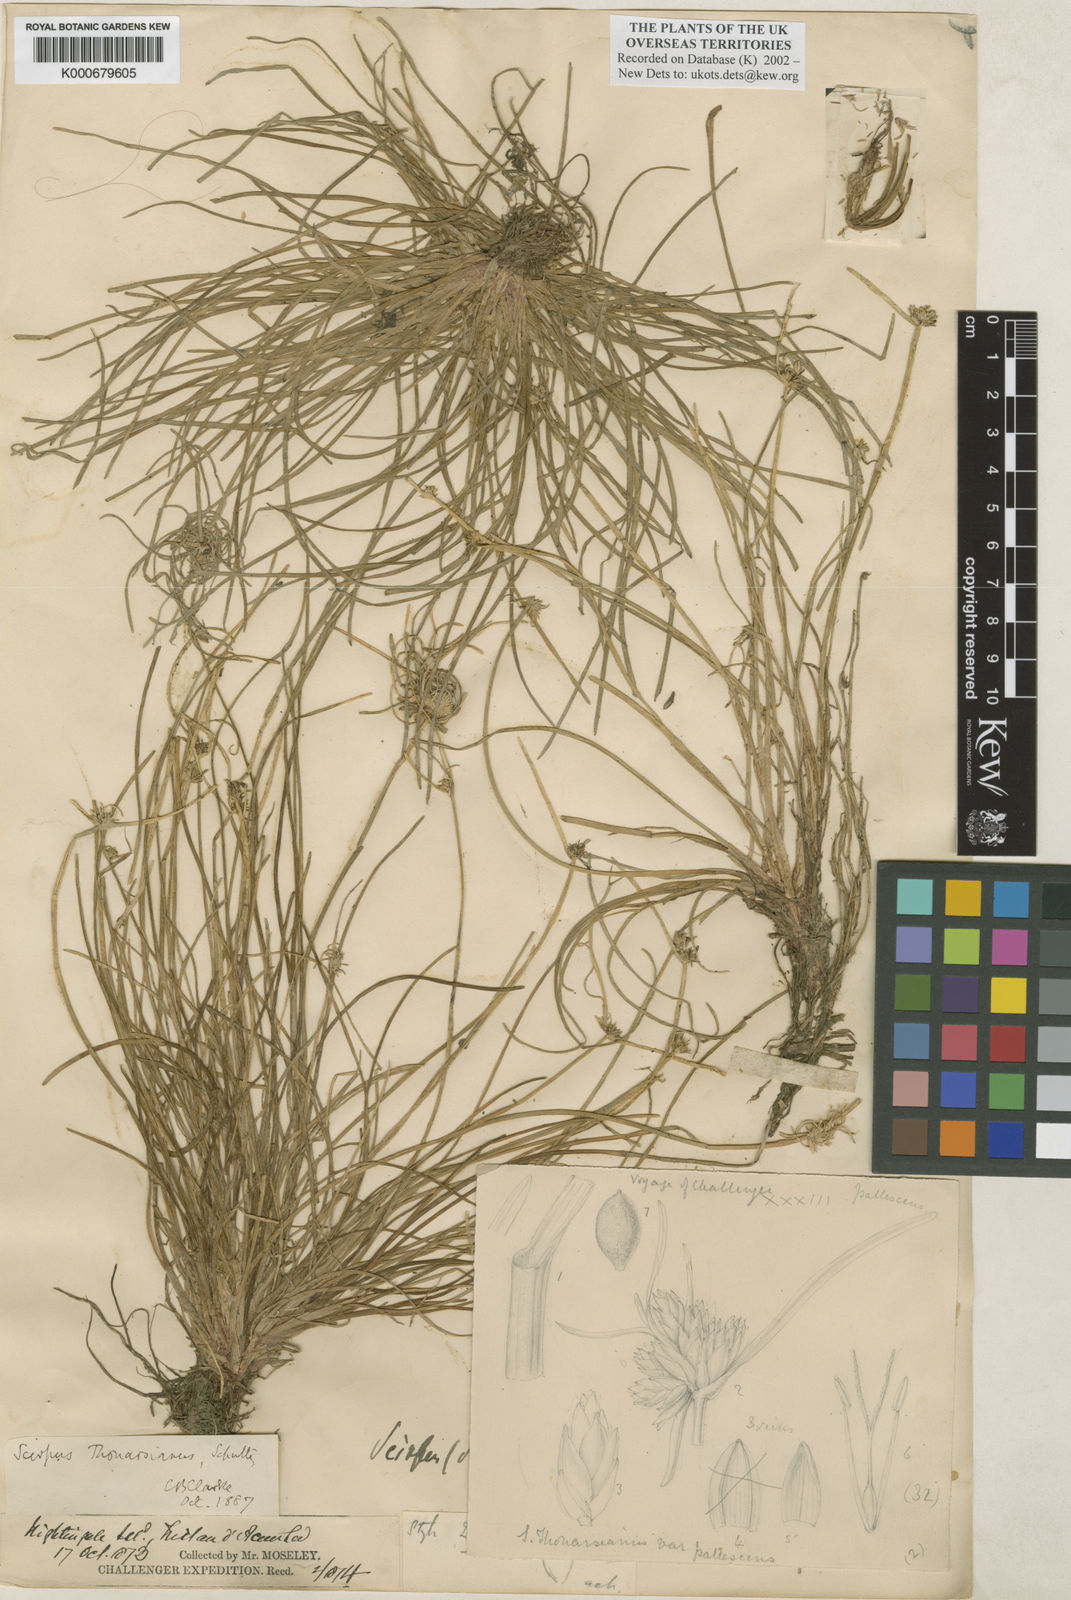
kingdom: Plantae
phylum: Tracheophyta
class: Liliopsida
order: Poales
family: Cyperaceae
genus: Isolepis
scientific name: Isolepis bicolor
